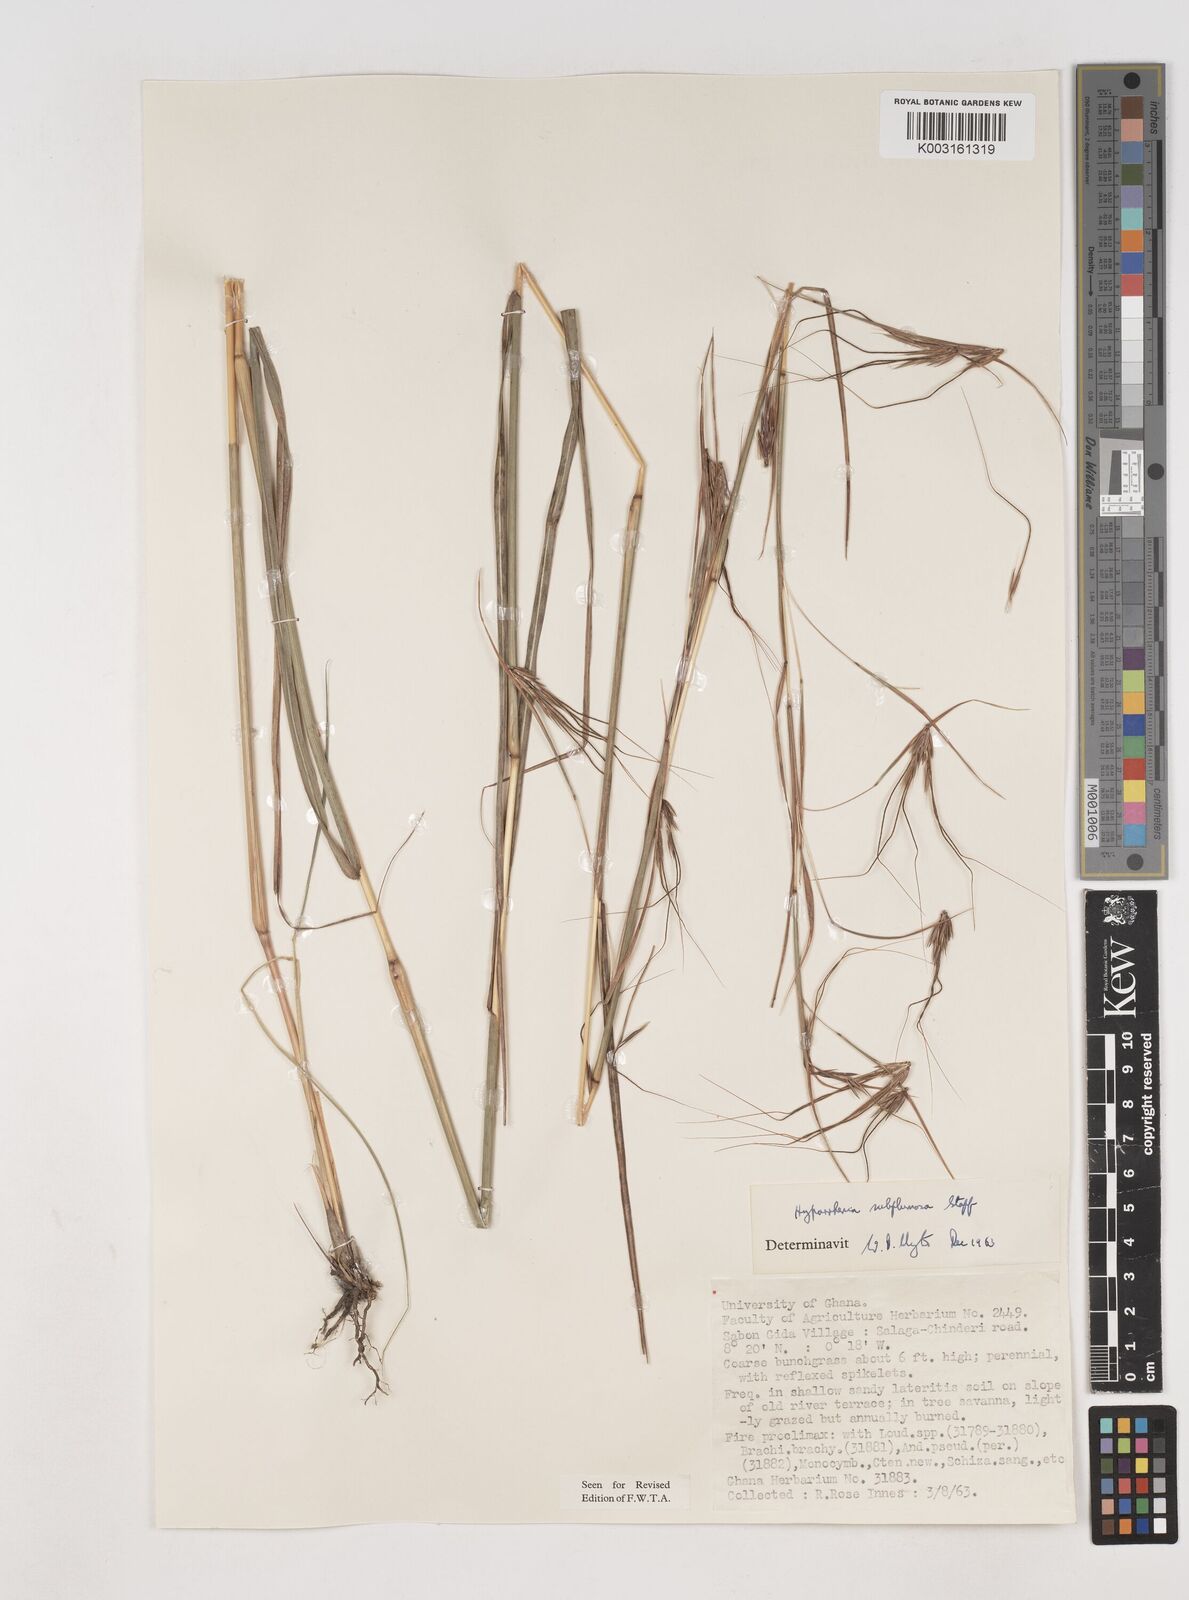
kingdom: Plantae
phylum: Tracheophyta
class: Liliopsida
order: Poales
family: Poaceae
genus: Hyparrhenia
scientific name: Hyparrhenia subplumosa
